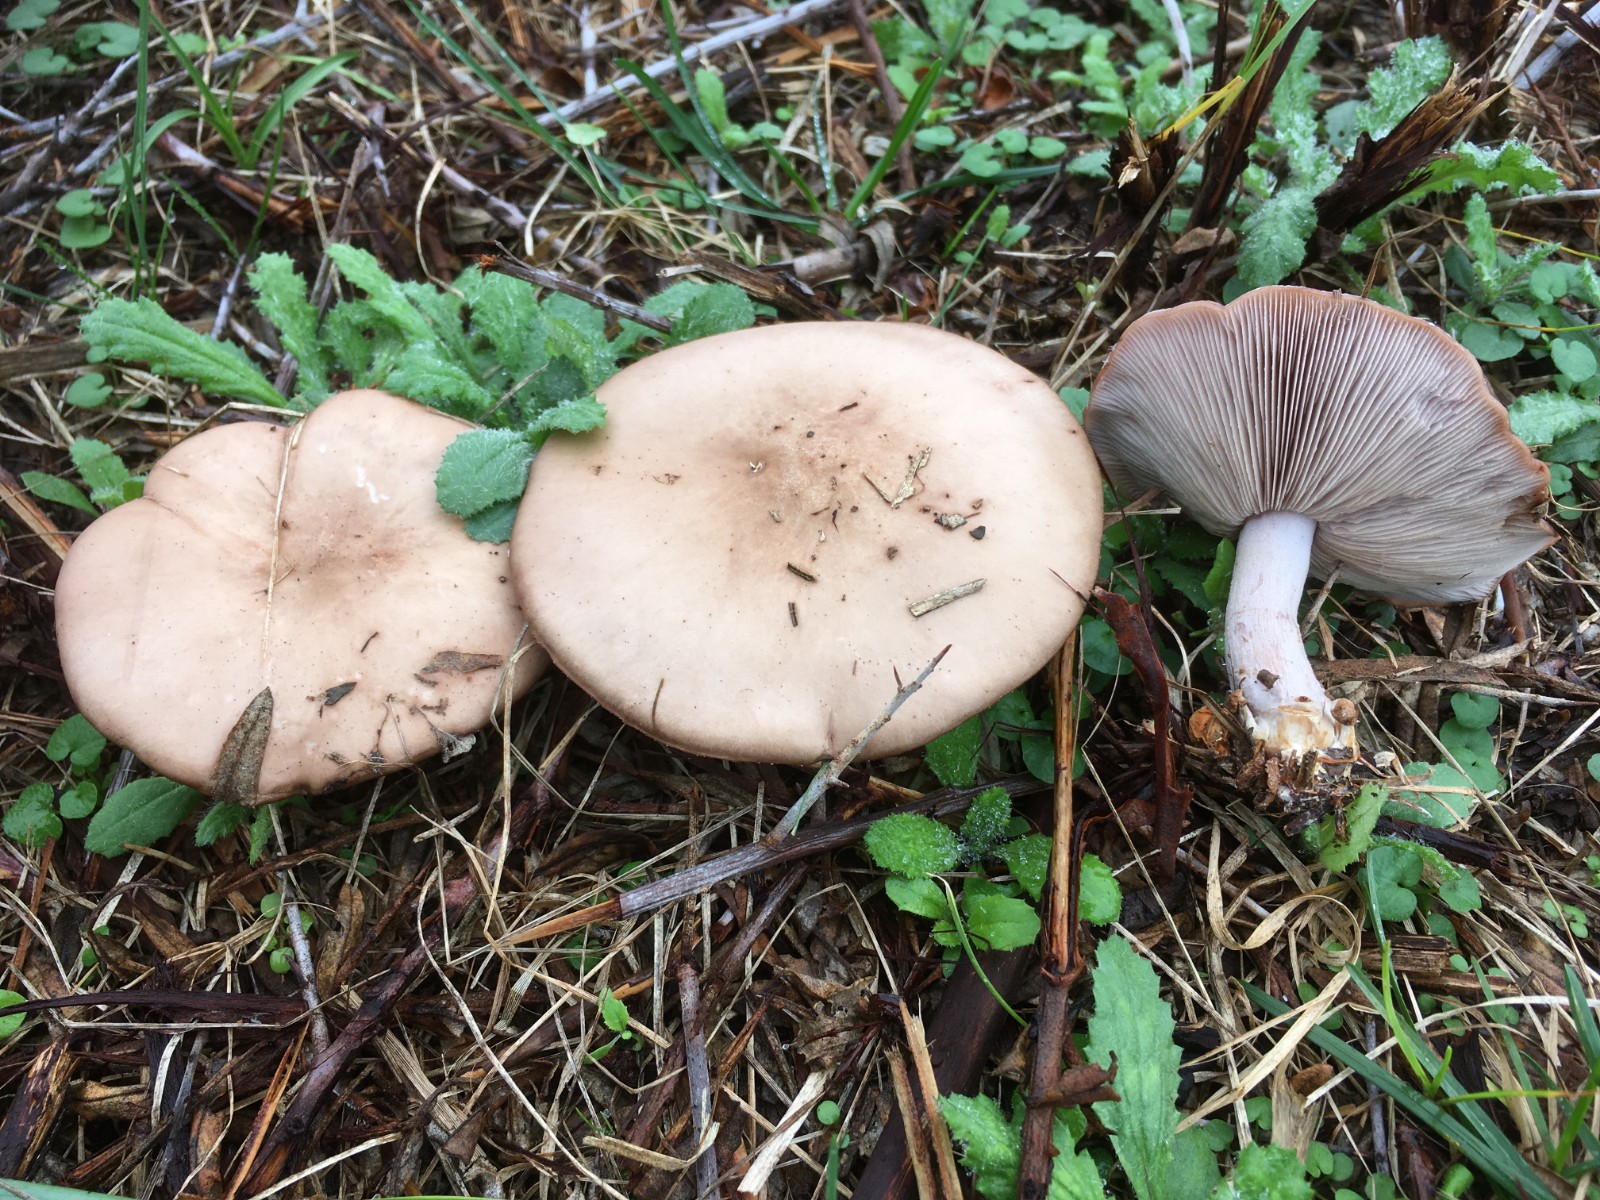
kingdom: Fungi
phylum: Basidiomycota
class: Agaricomycetes
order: Agaricales
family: Tricholomataceae
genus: Lepista
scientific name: Lepista nuda
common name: violet hekseringshat
